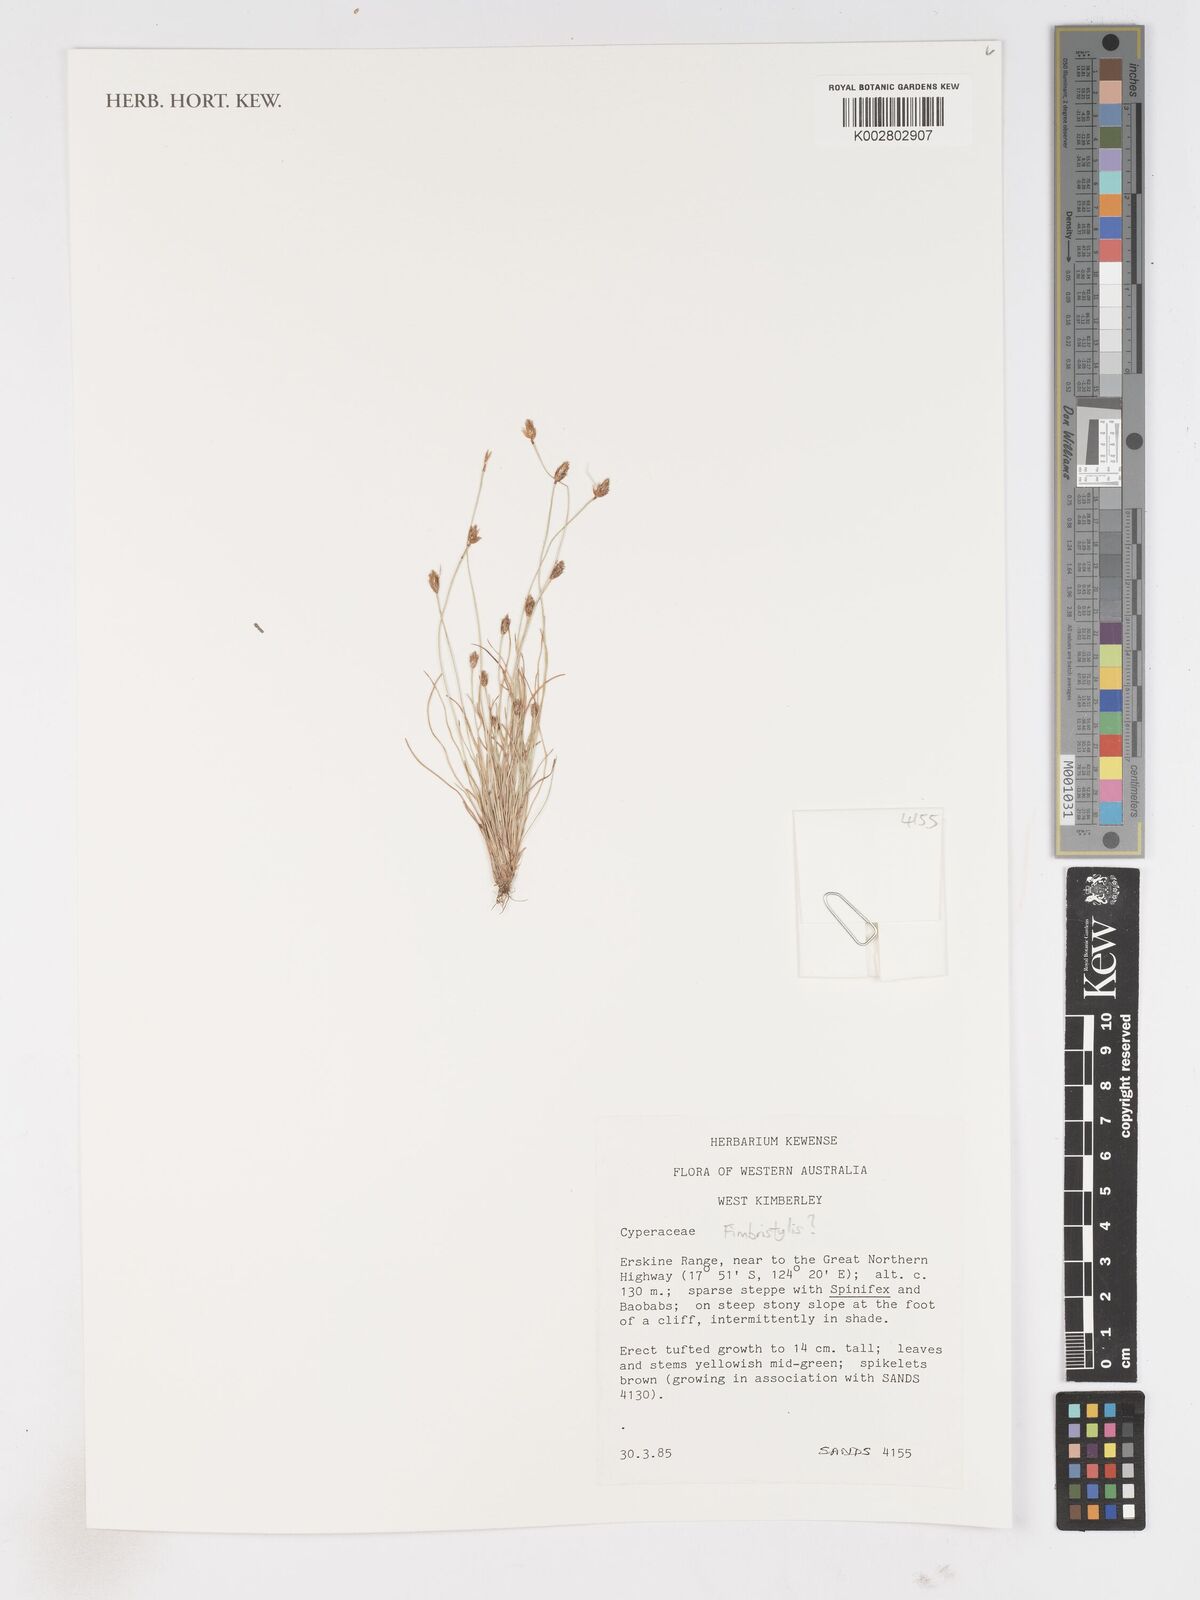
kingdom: Plantae
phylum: Tracheophyta
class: Liliopsida
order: Poales
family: Cyperaceae
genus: Fimbristylis
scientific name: Fimbristylis
